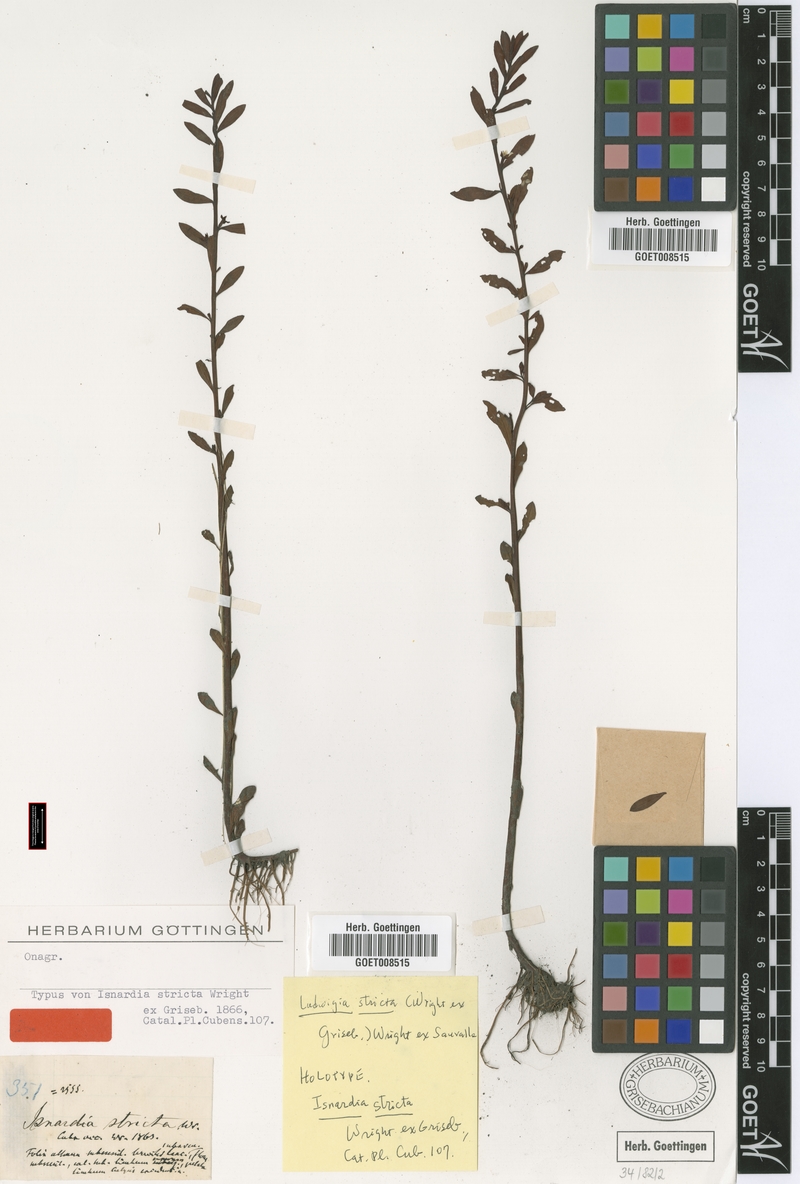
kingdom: Plantae
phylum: Tracheophyta
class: Magnoliopsida
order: Myrtales
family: Onagraceae
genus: Ludwigia
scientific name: Ludwigia stricta
